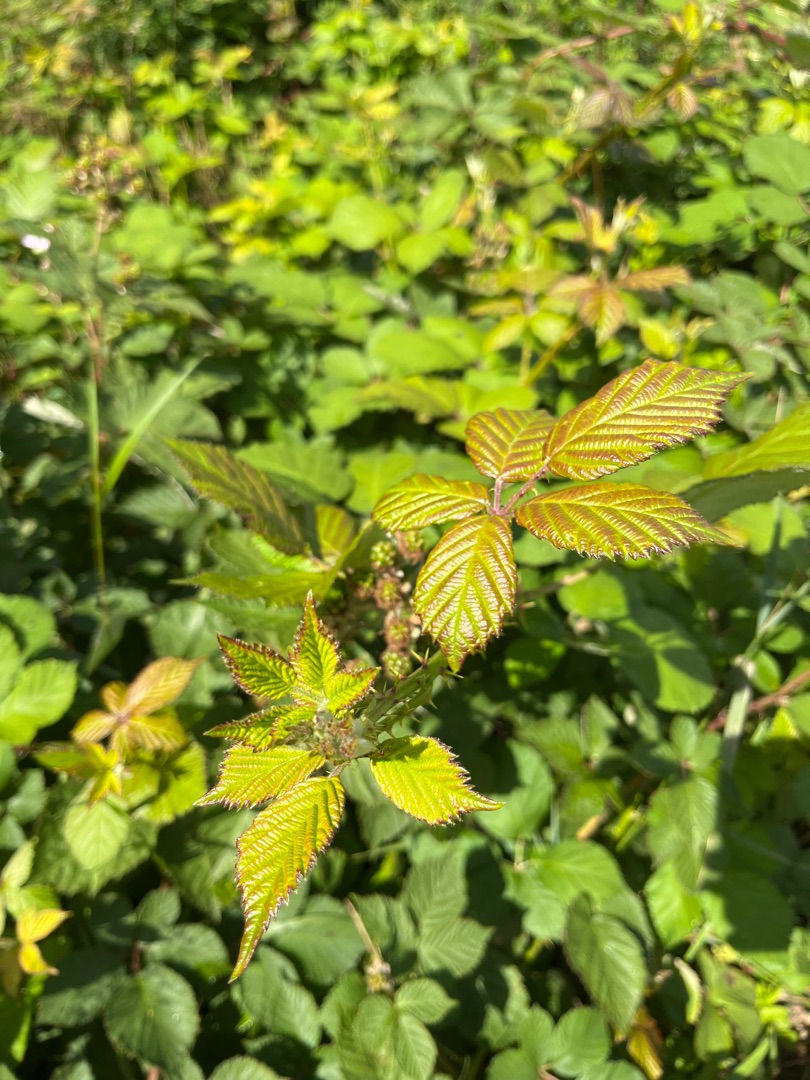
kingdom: Plantae
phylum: Tracheophyta
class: Magnoliopsida
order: Rosales
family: Rosaceae
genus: Rubus
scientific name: Rubus armeniacus
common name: Armensk brombær
